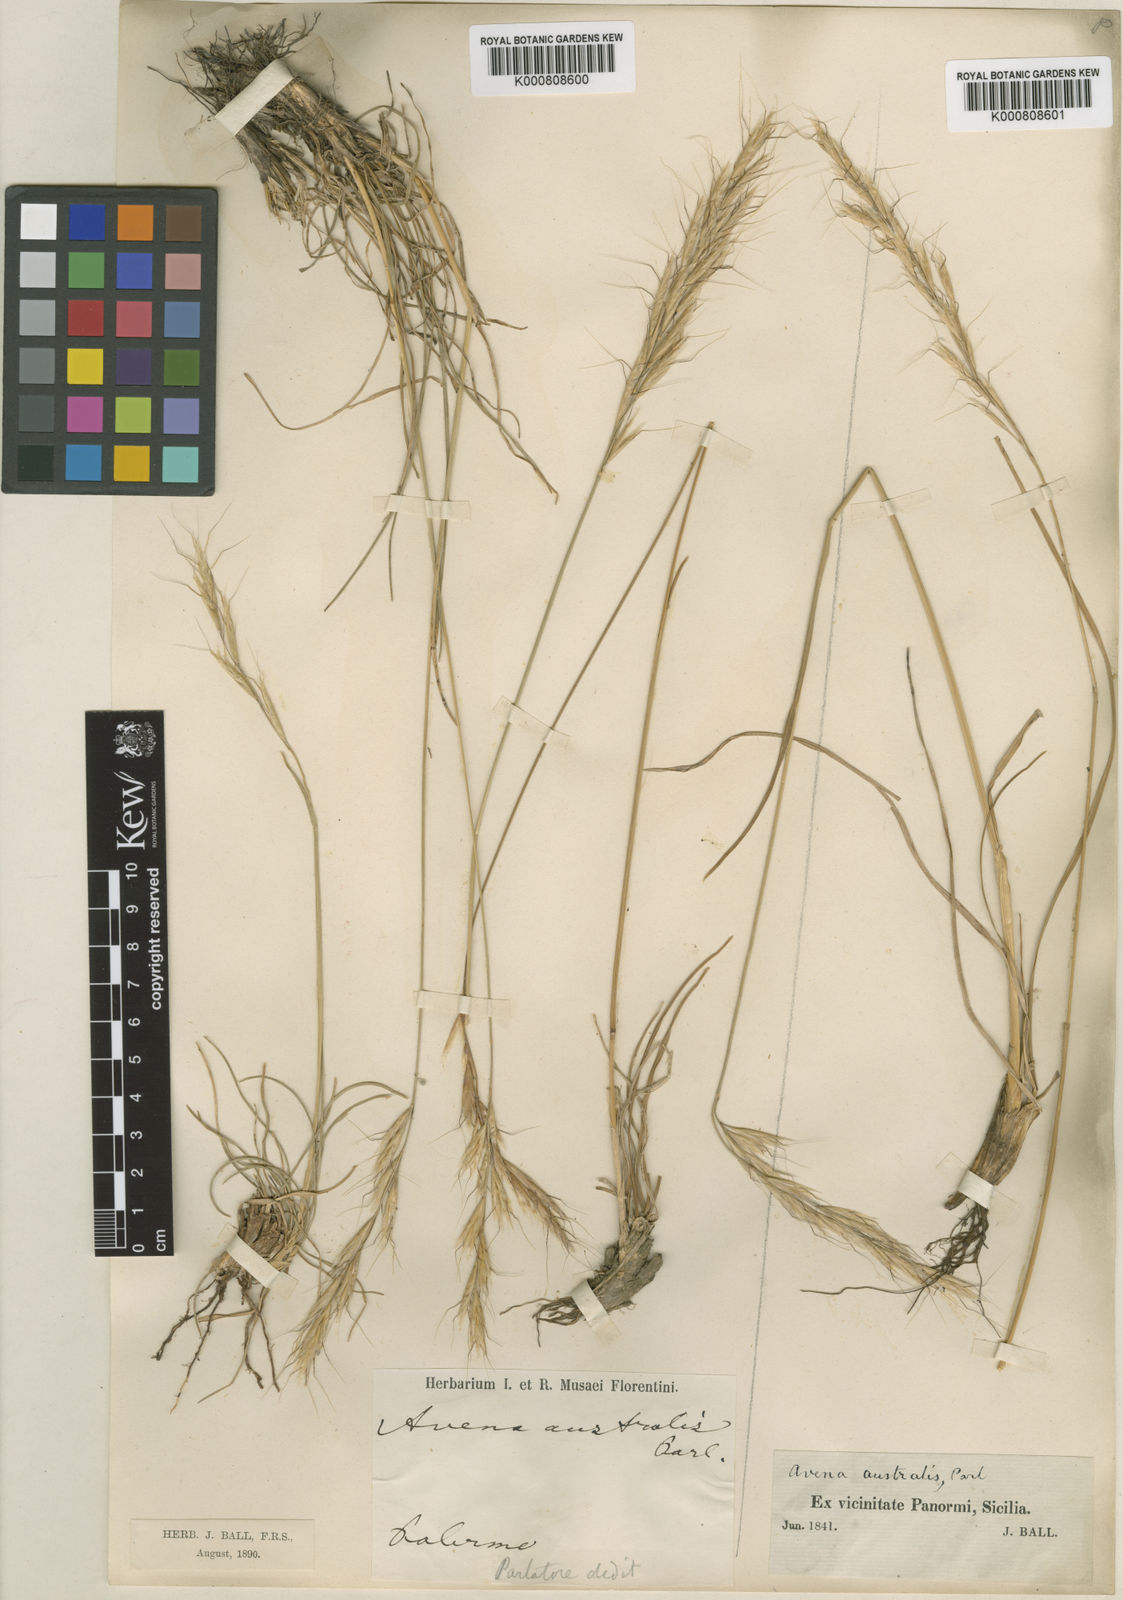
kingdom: Plantae
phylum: Tracheophyta
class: Liliopsida
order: Poales
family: Poaceae
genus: Helictotrichon
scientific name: Helictotrichon
